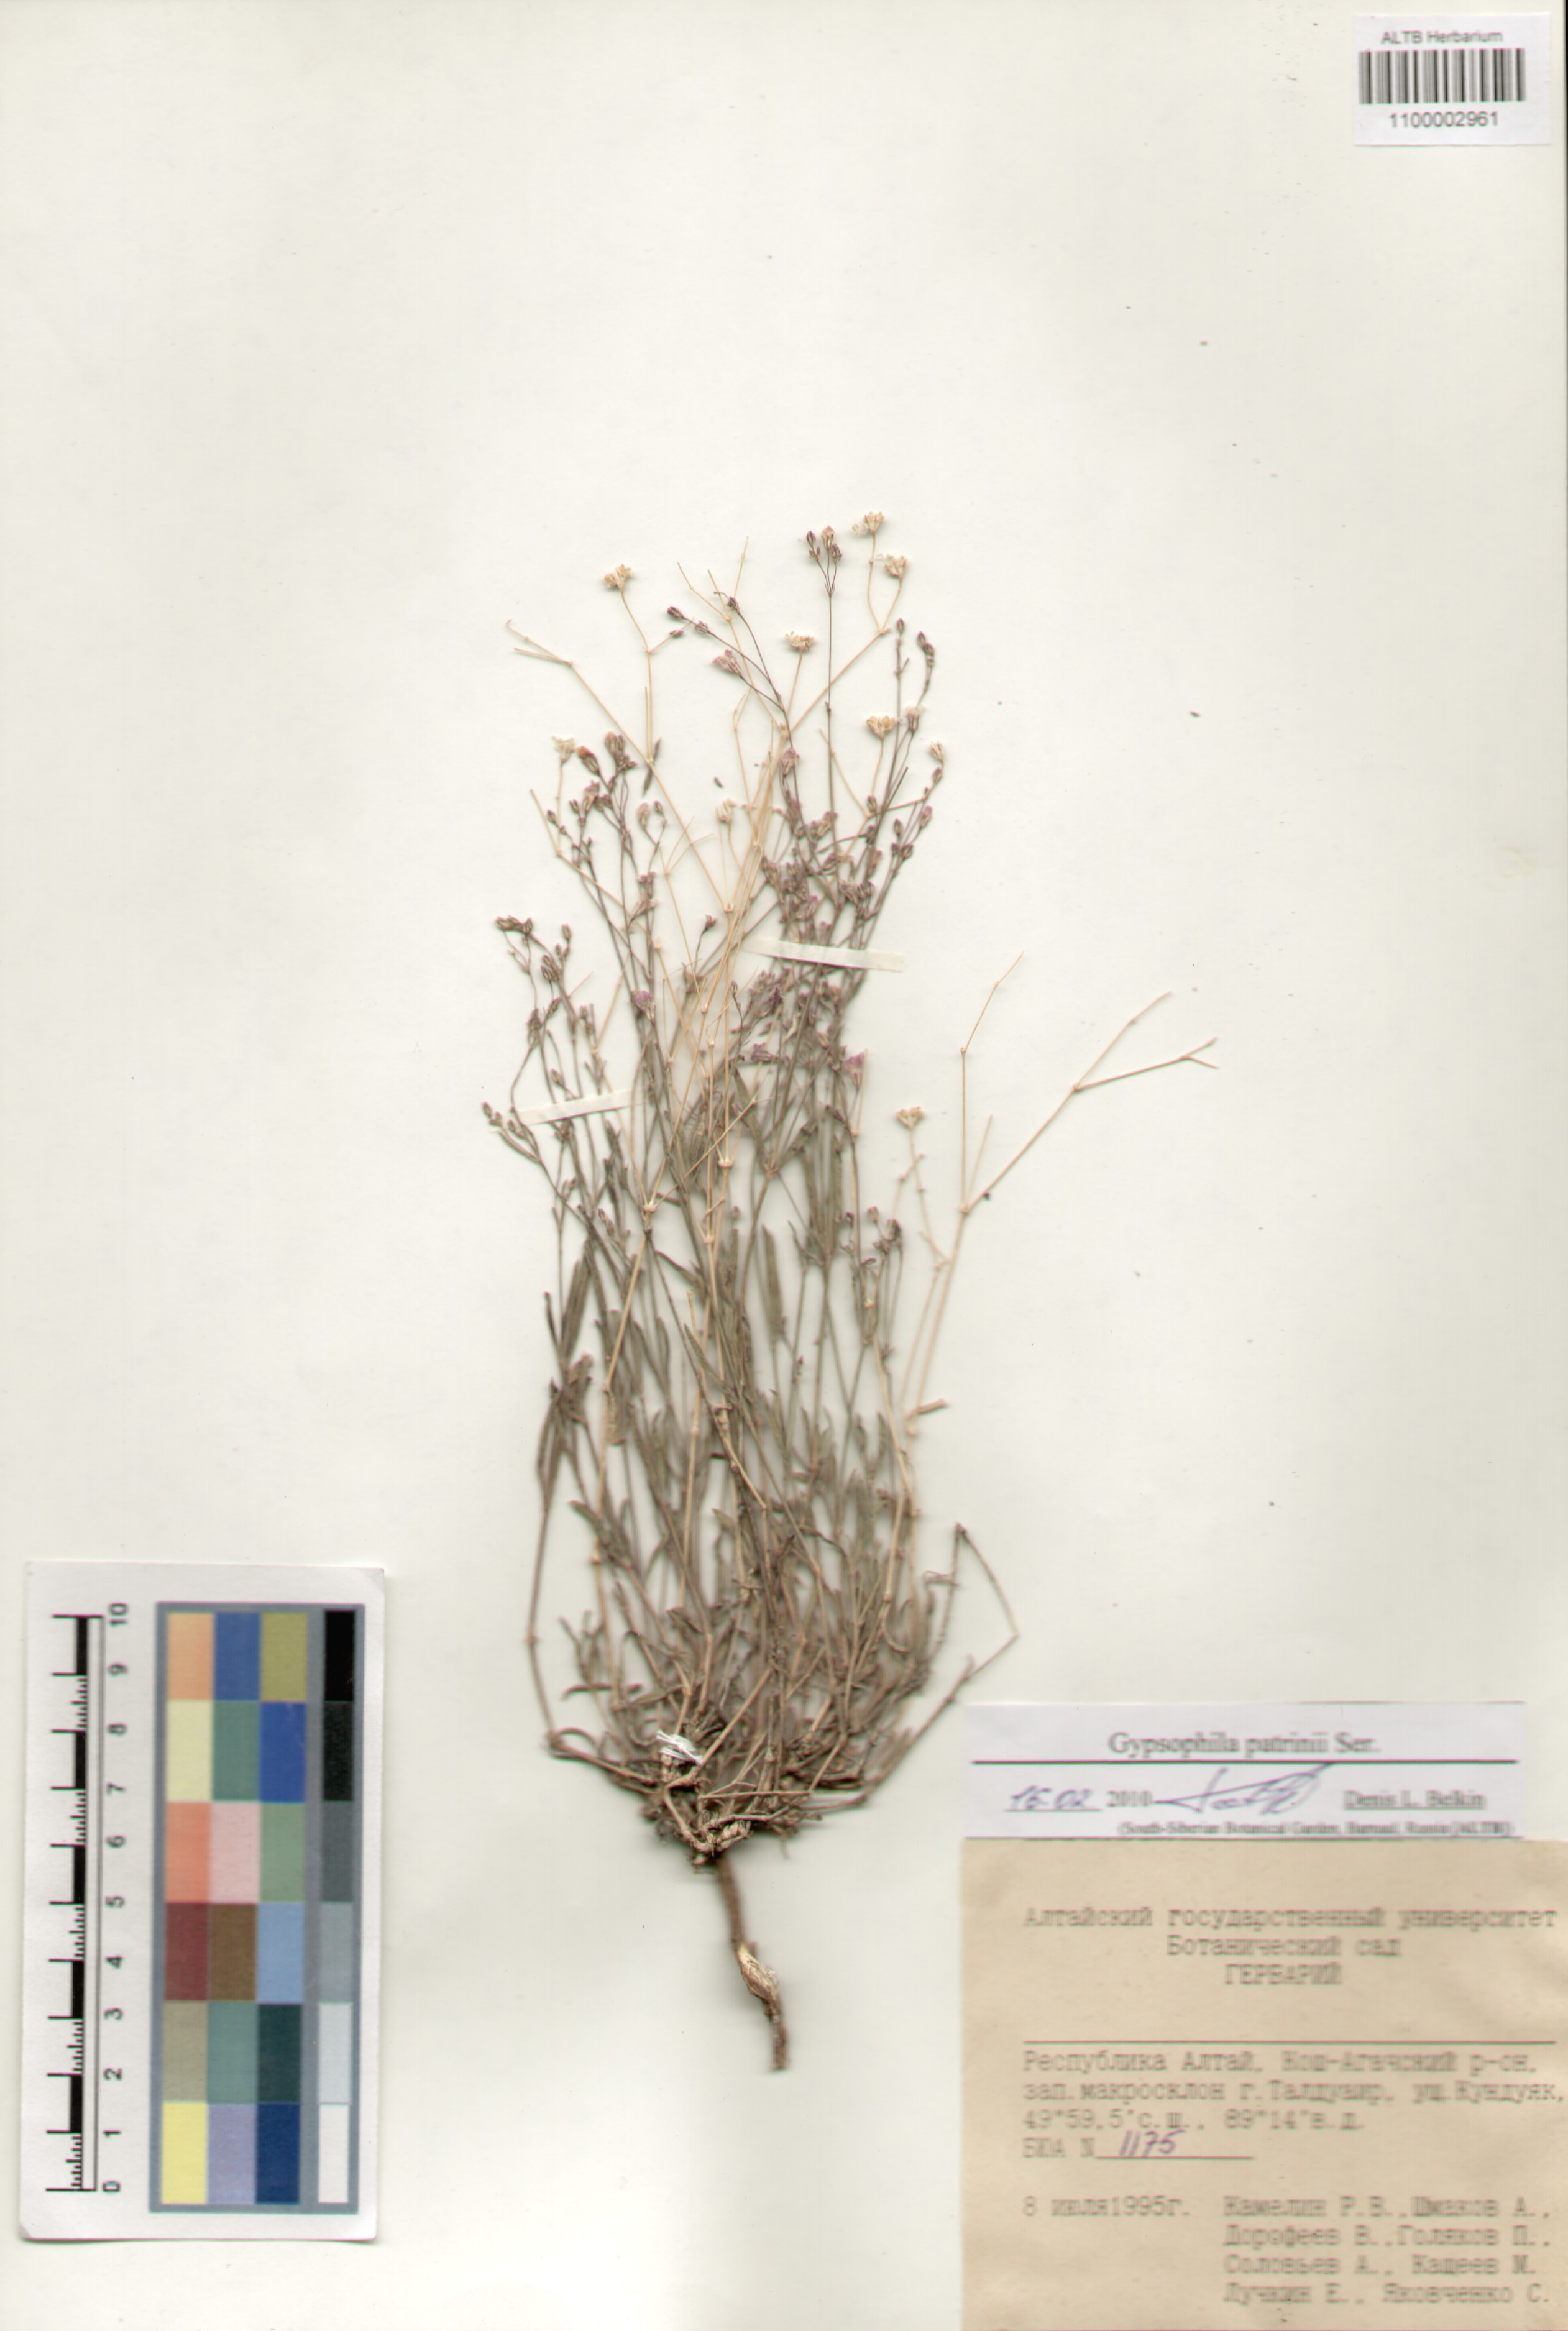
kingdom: Plantae
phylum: Tracheophyta
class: Magnoliopsida
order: Caryophyllales
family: Caryophyllaceae
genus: Gypsophila
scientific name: Gypsophila patrinii
